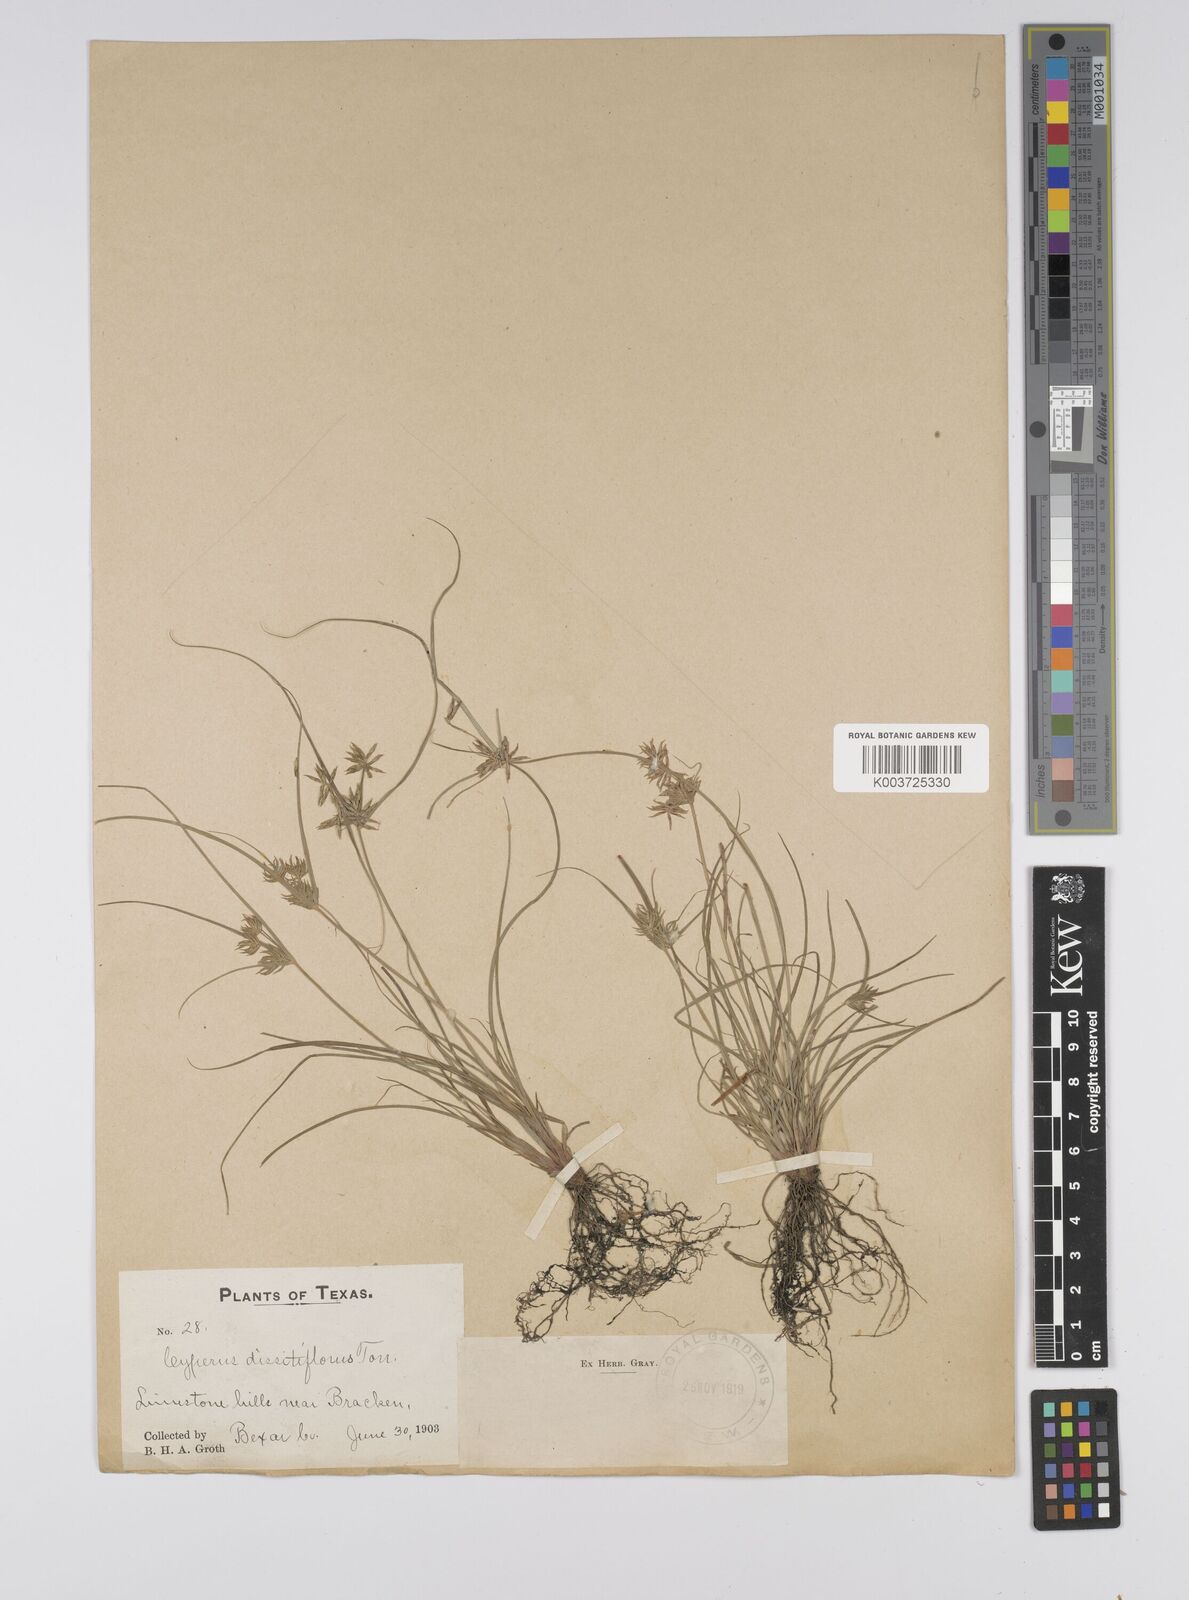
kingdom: Plantae
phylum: Tracheophyta
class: Liliopsida
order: Poales
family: Cyperaceae
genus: Cyperus
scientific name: Cyperus
